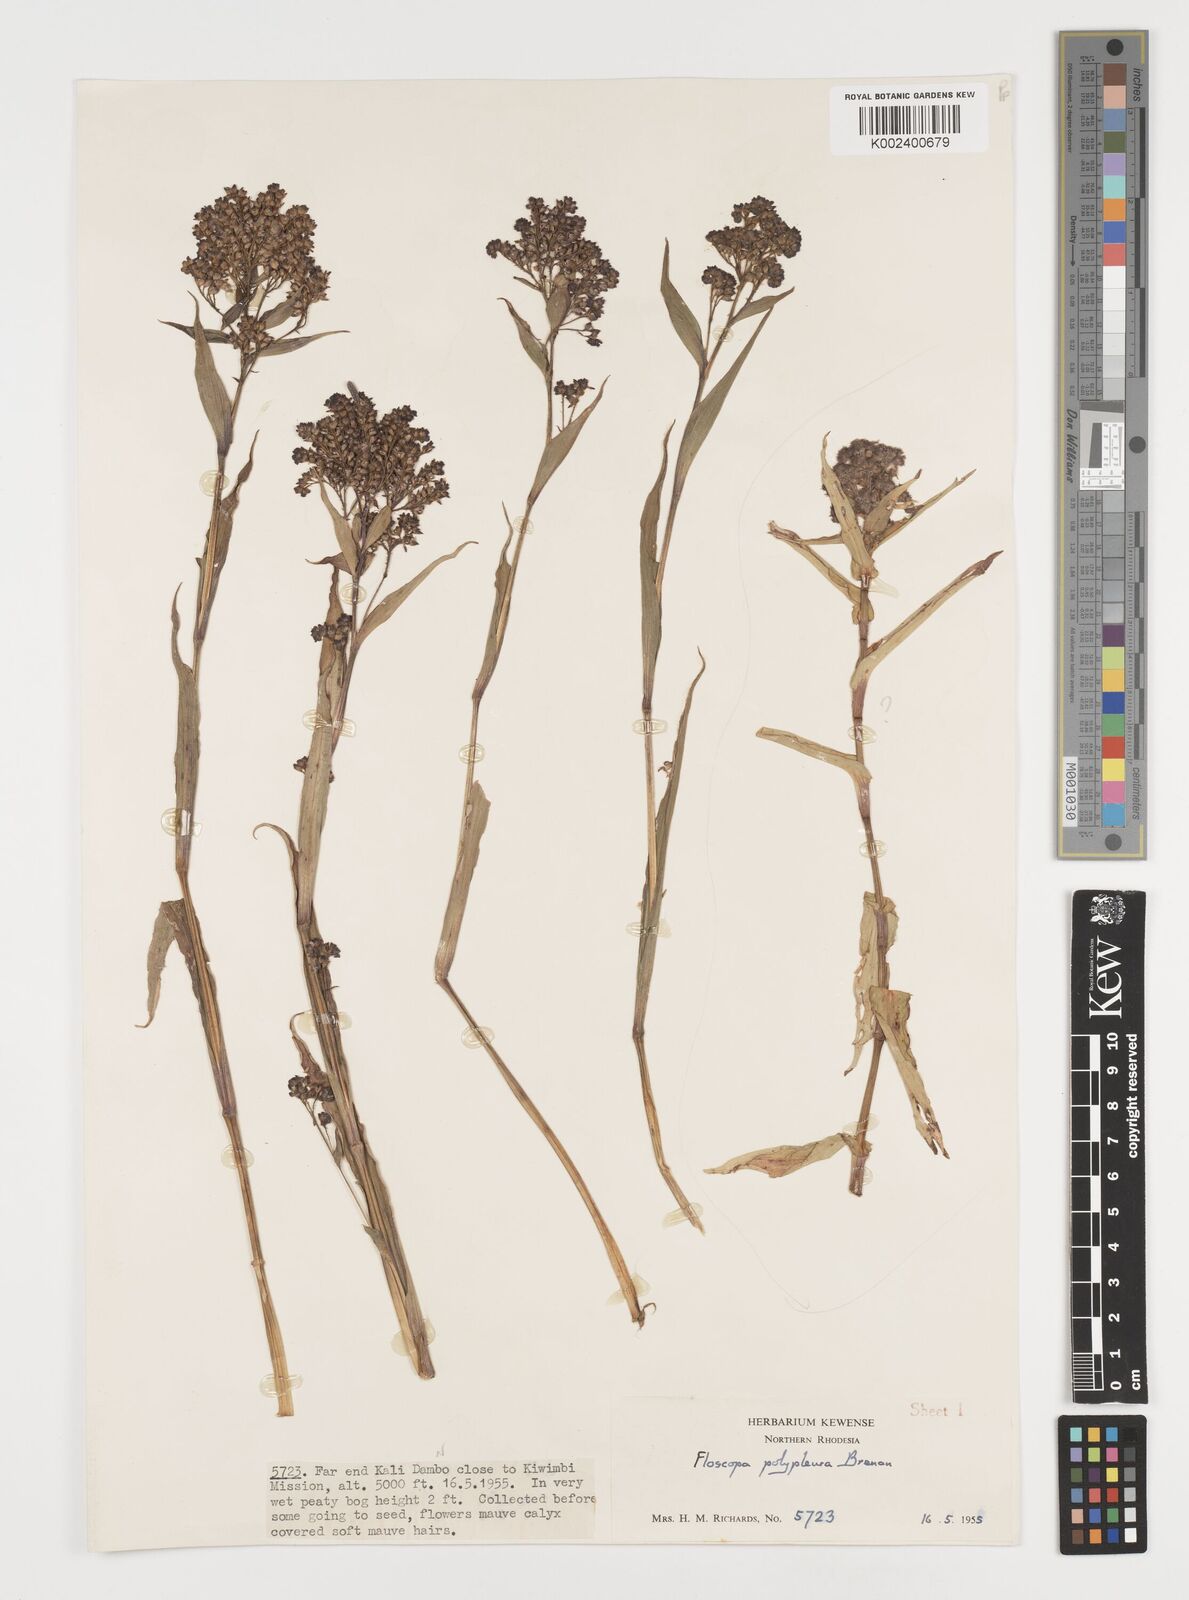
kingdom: Plantae
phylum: Tracheophyta
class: Liliopsida
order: Commelinales
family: Commelinaceae
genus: Floscopa
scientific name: Floscopa polypleura
